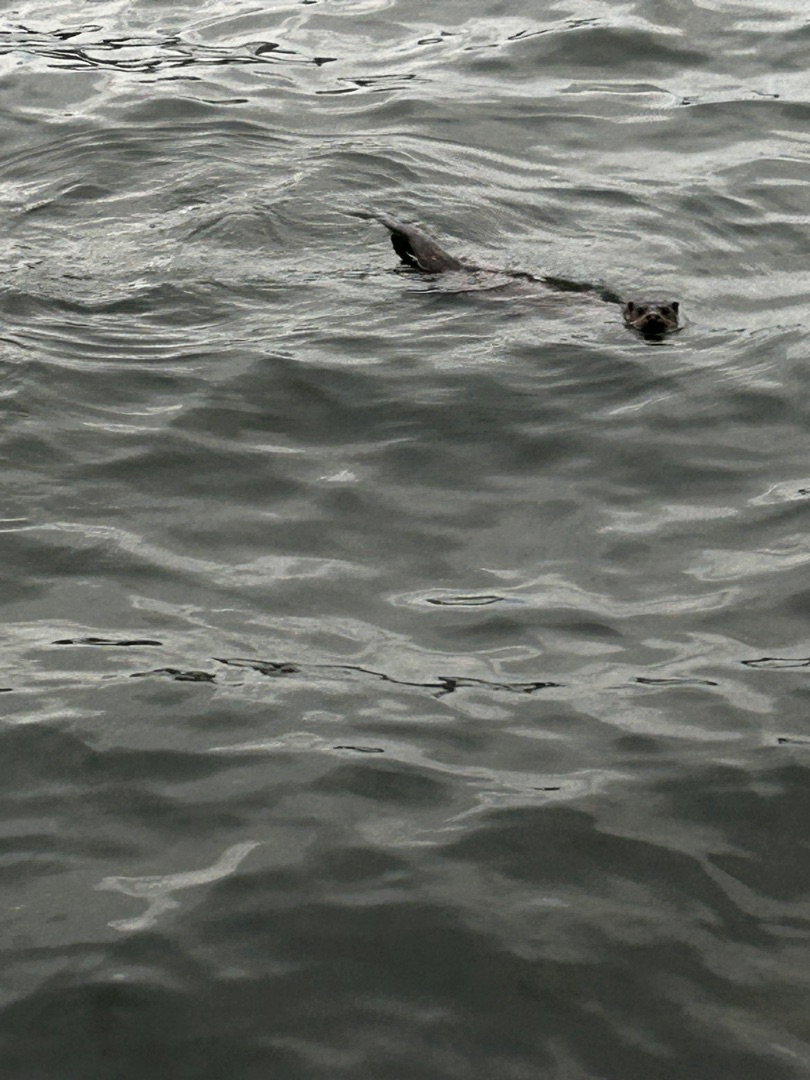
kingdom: Animalia
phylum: Chordata
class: Mammalia
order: Carnivora
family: Mustelidae
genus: Lutra
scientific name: Lutra lutra
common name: Odder
